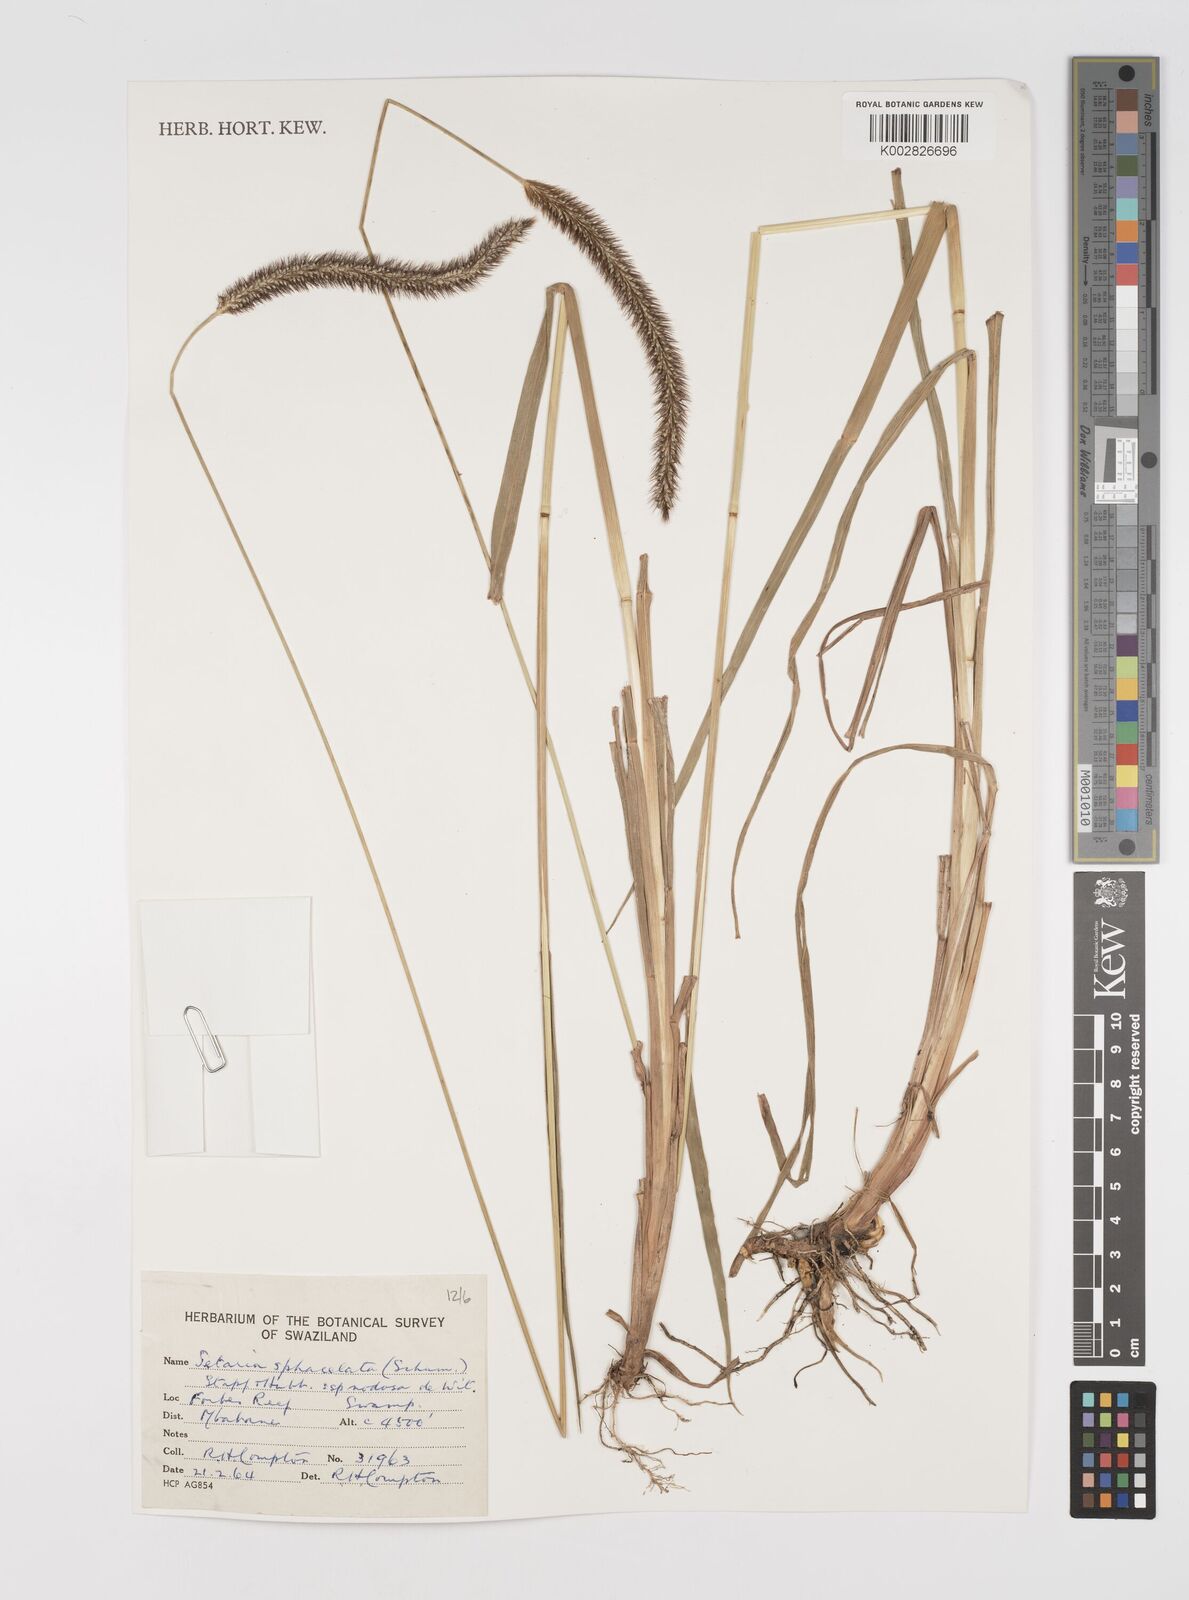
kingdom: Plantae
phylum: Tracheophyta
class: Liliopsida
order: Poales
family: Poaceae
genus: Setaria
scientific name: Setaria sphacelata
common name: African bristlegrass
